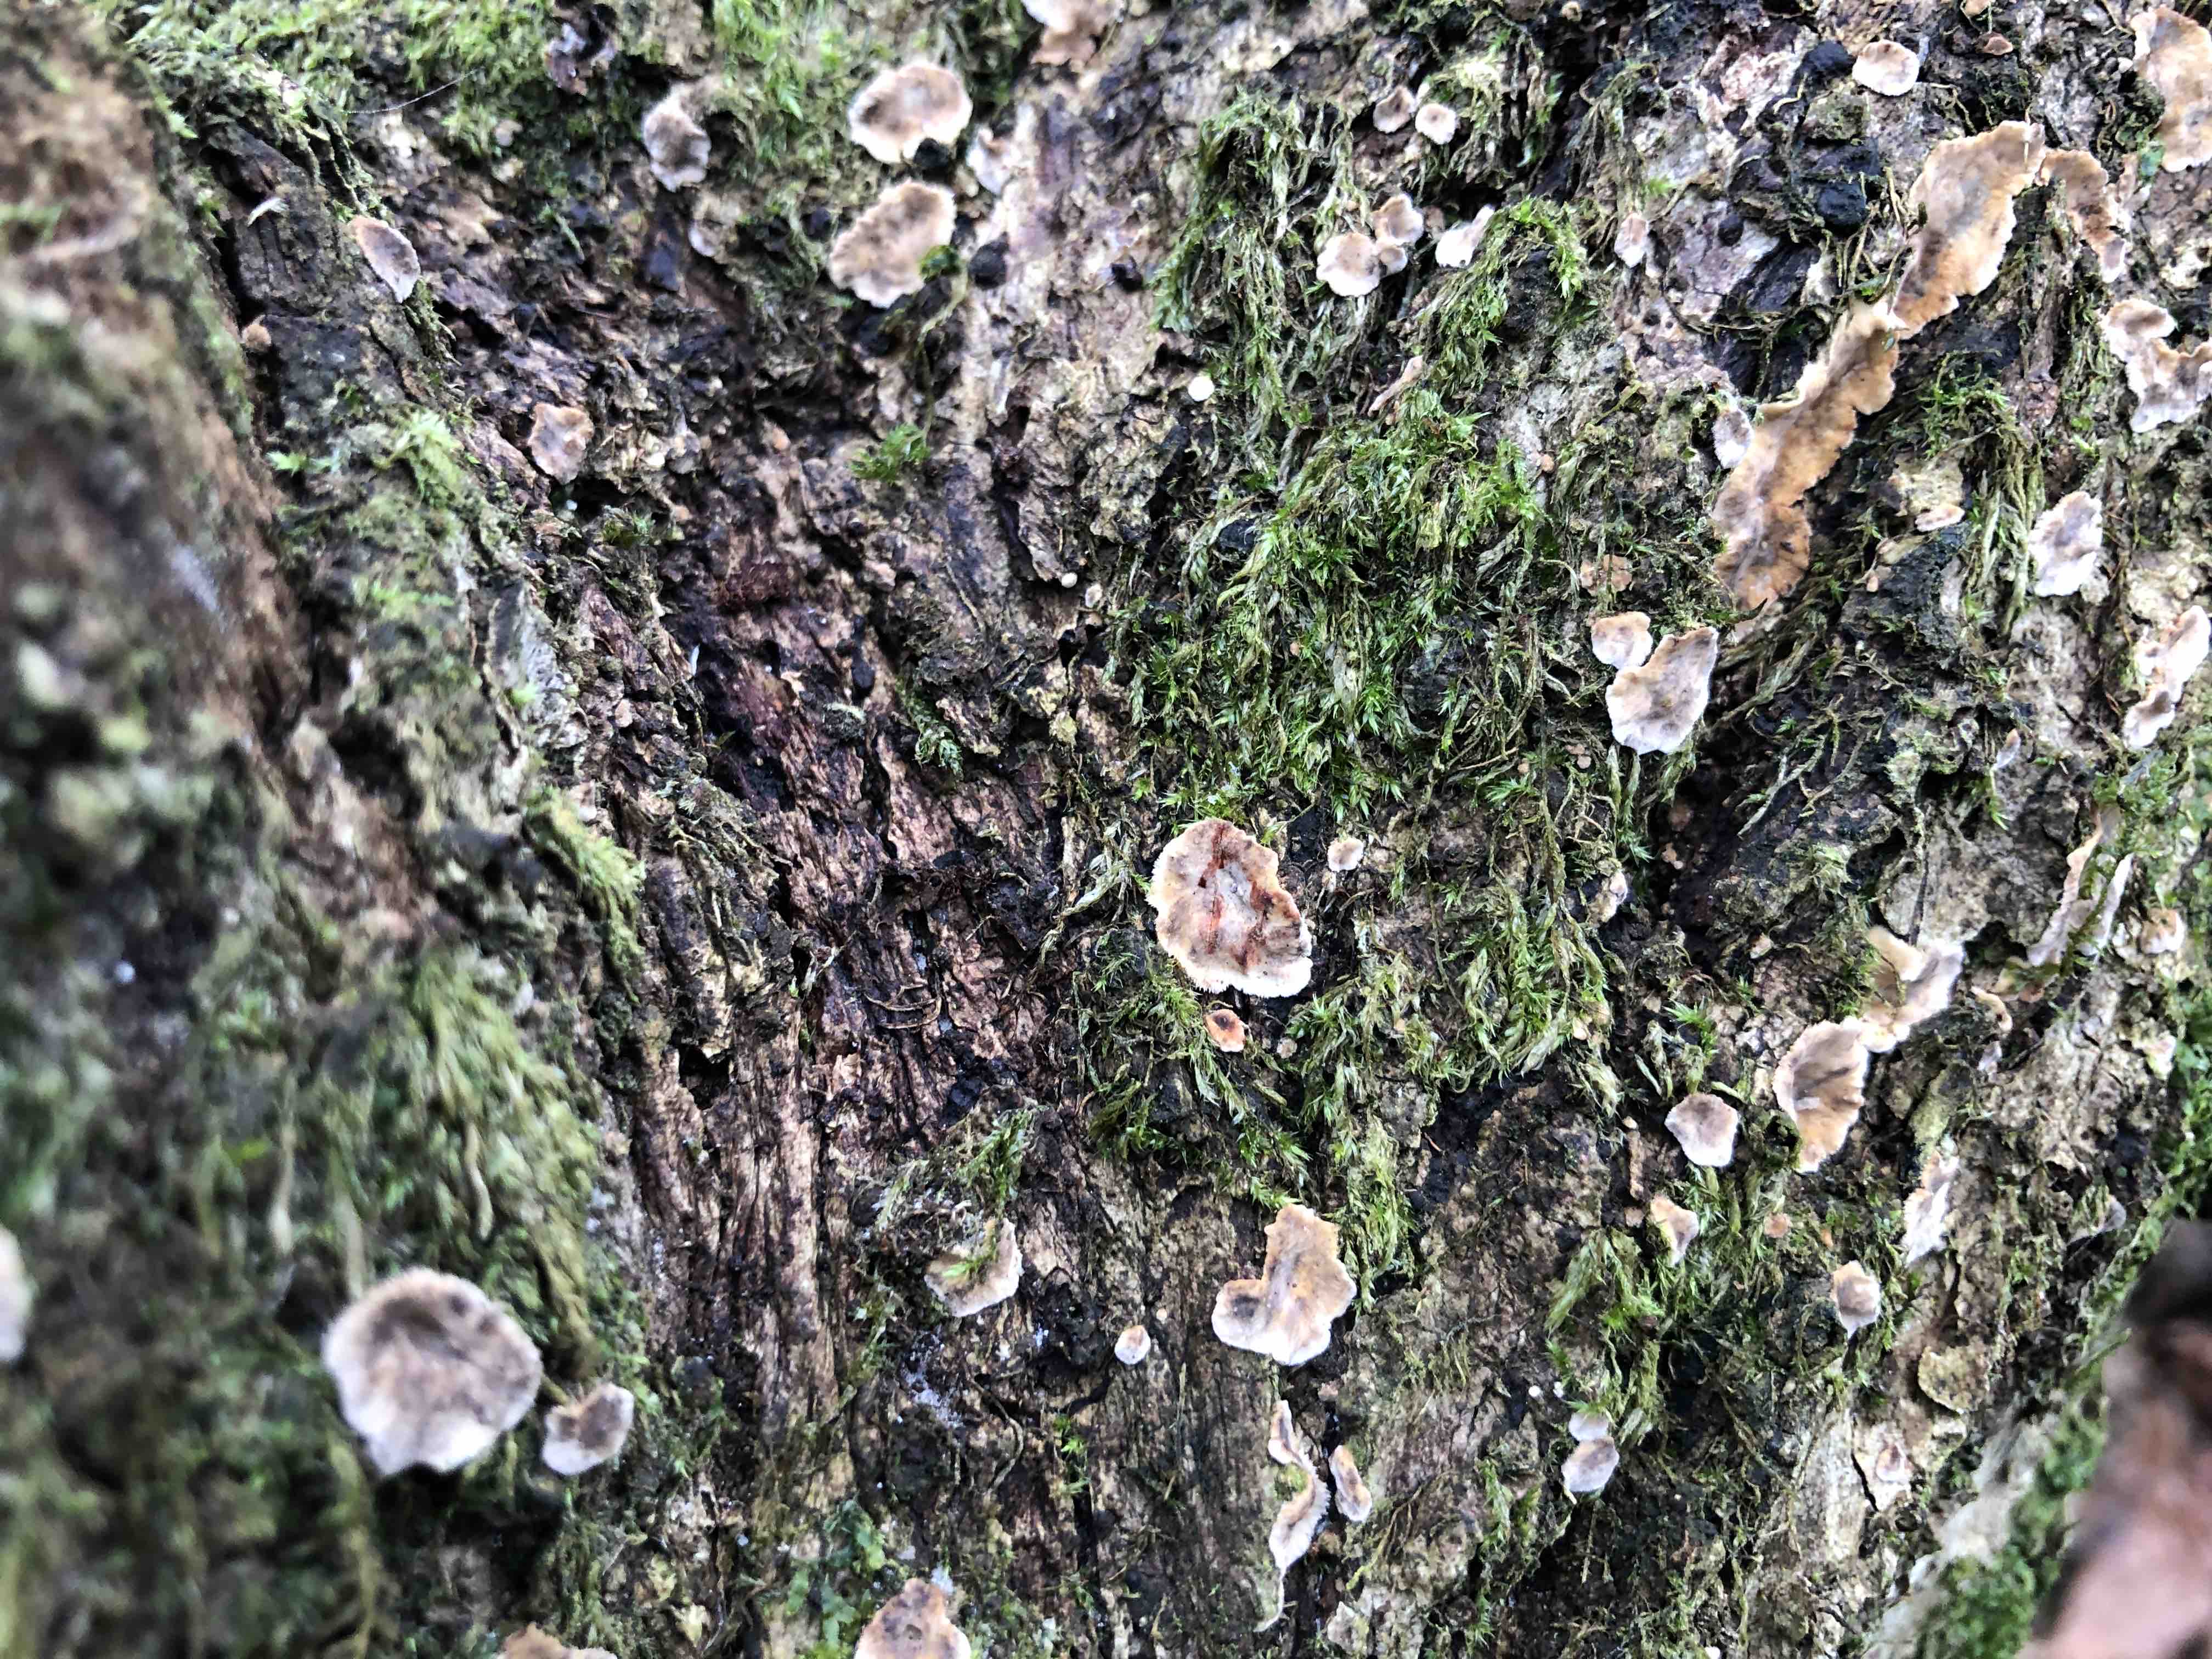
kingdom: Fungi
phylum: Basidiomycota
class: Agaricomycetes
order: Russulales
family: Stereaceae
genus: Stereum
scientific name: Stereum rugosum
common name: rynket lædersvamp
